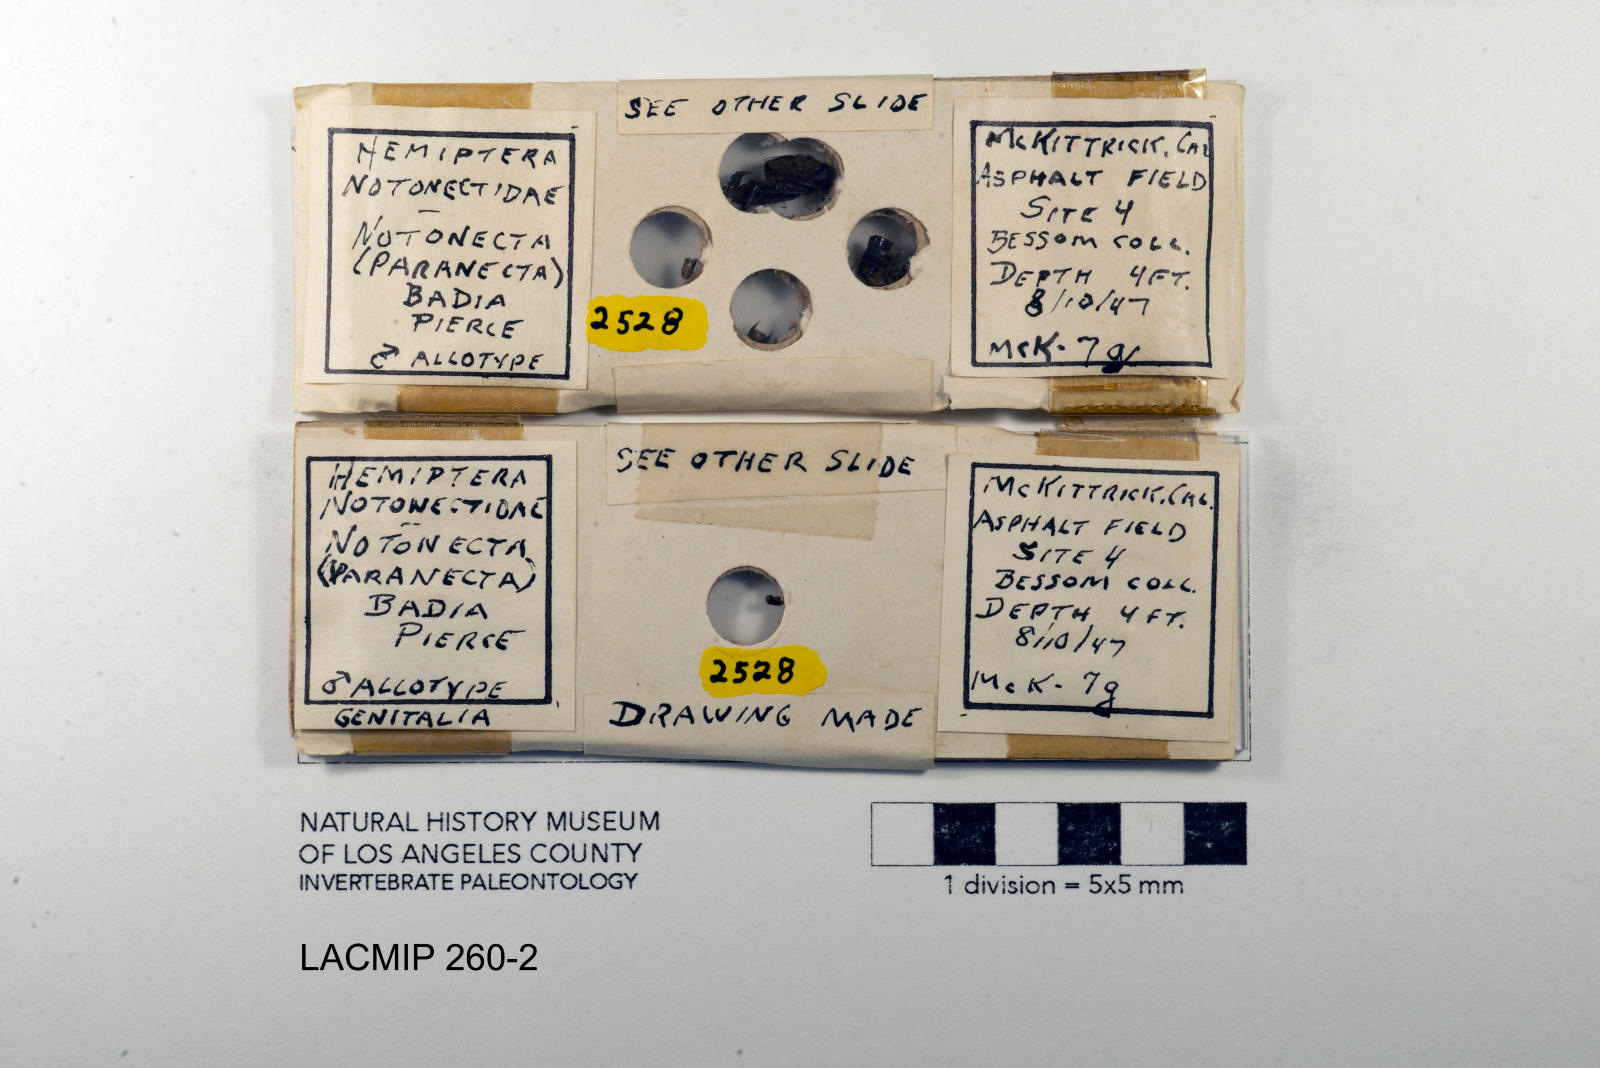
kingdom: Animalia
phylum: Arthropoda
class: Insecta
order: Hemiptera
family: Notonectidae
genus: Notonecta
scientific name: Notonecta unifasciata
